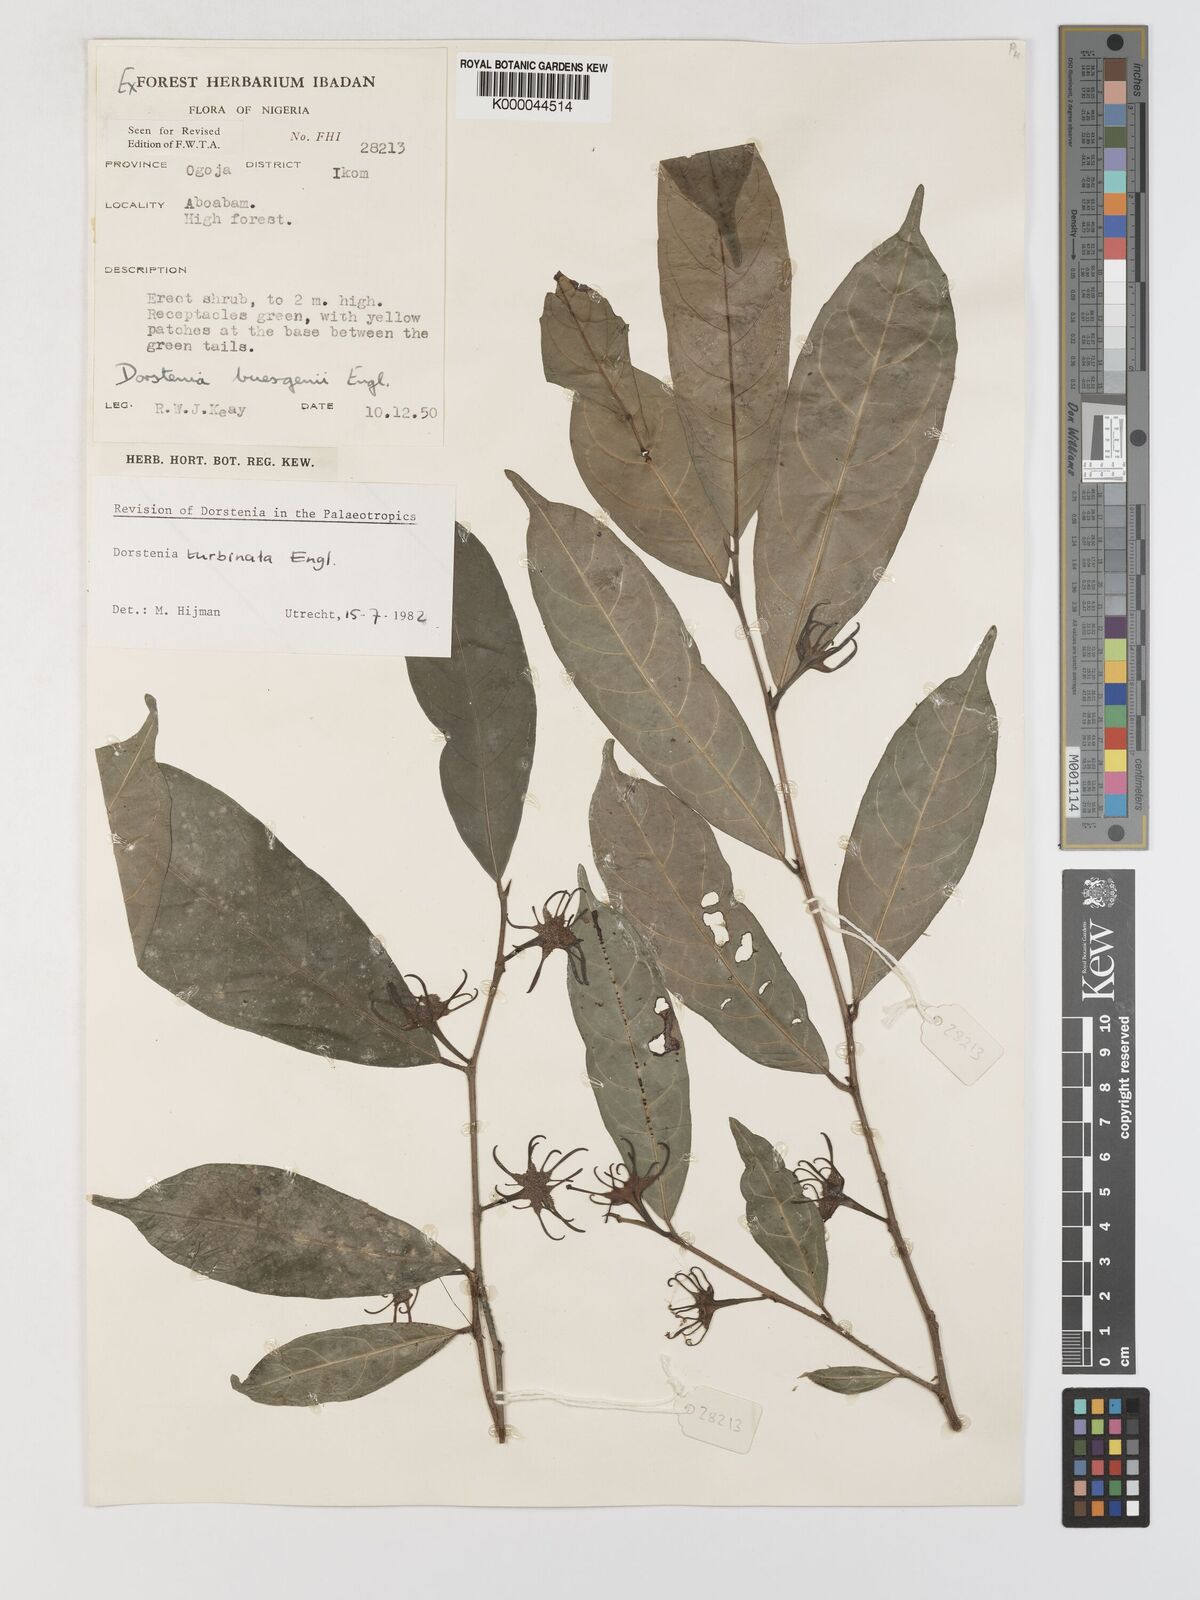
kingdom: Plantae
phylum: Tracheophyta
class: Magnoliopsida
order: Rosales
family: Moraceae
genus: Hijmania
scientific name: Hijmania turbinata
